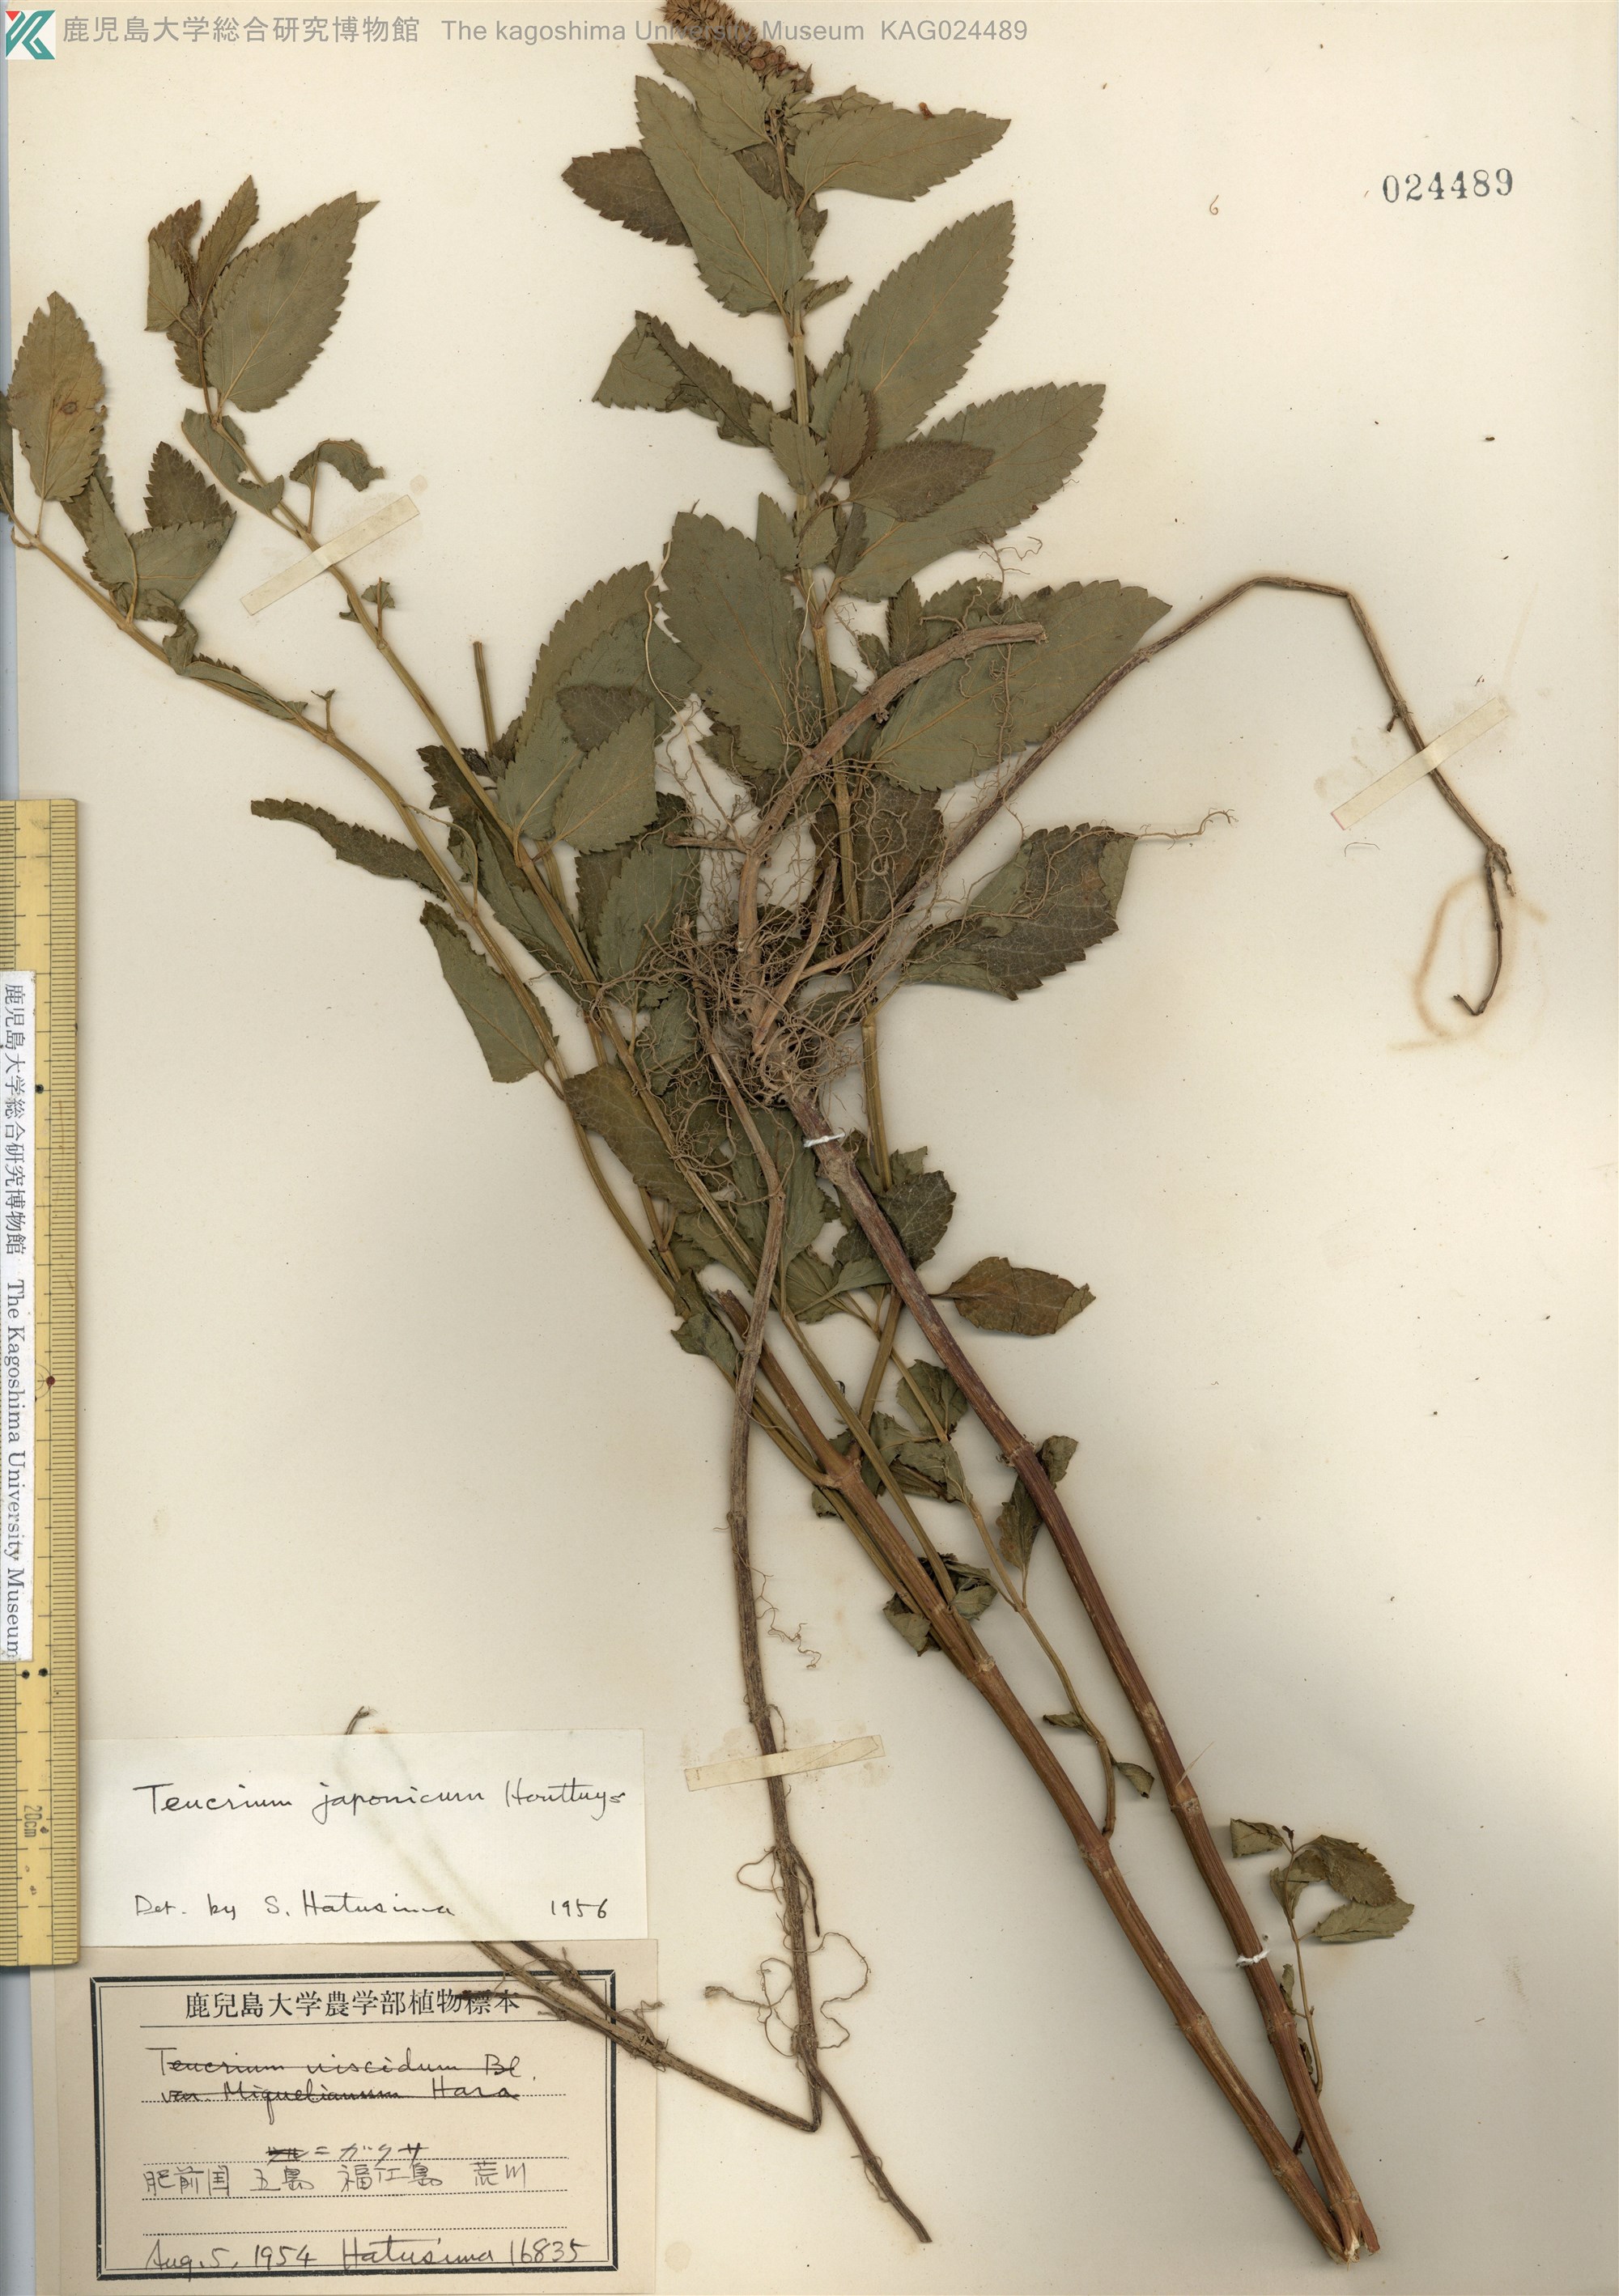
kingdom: Plantae
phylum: Tracheophyta
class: Magnoliopsida
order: Lamiales
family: Lamiaceae
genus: Teucrium
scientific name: Teucrium japonicum
